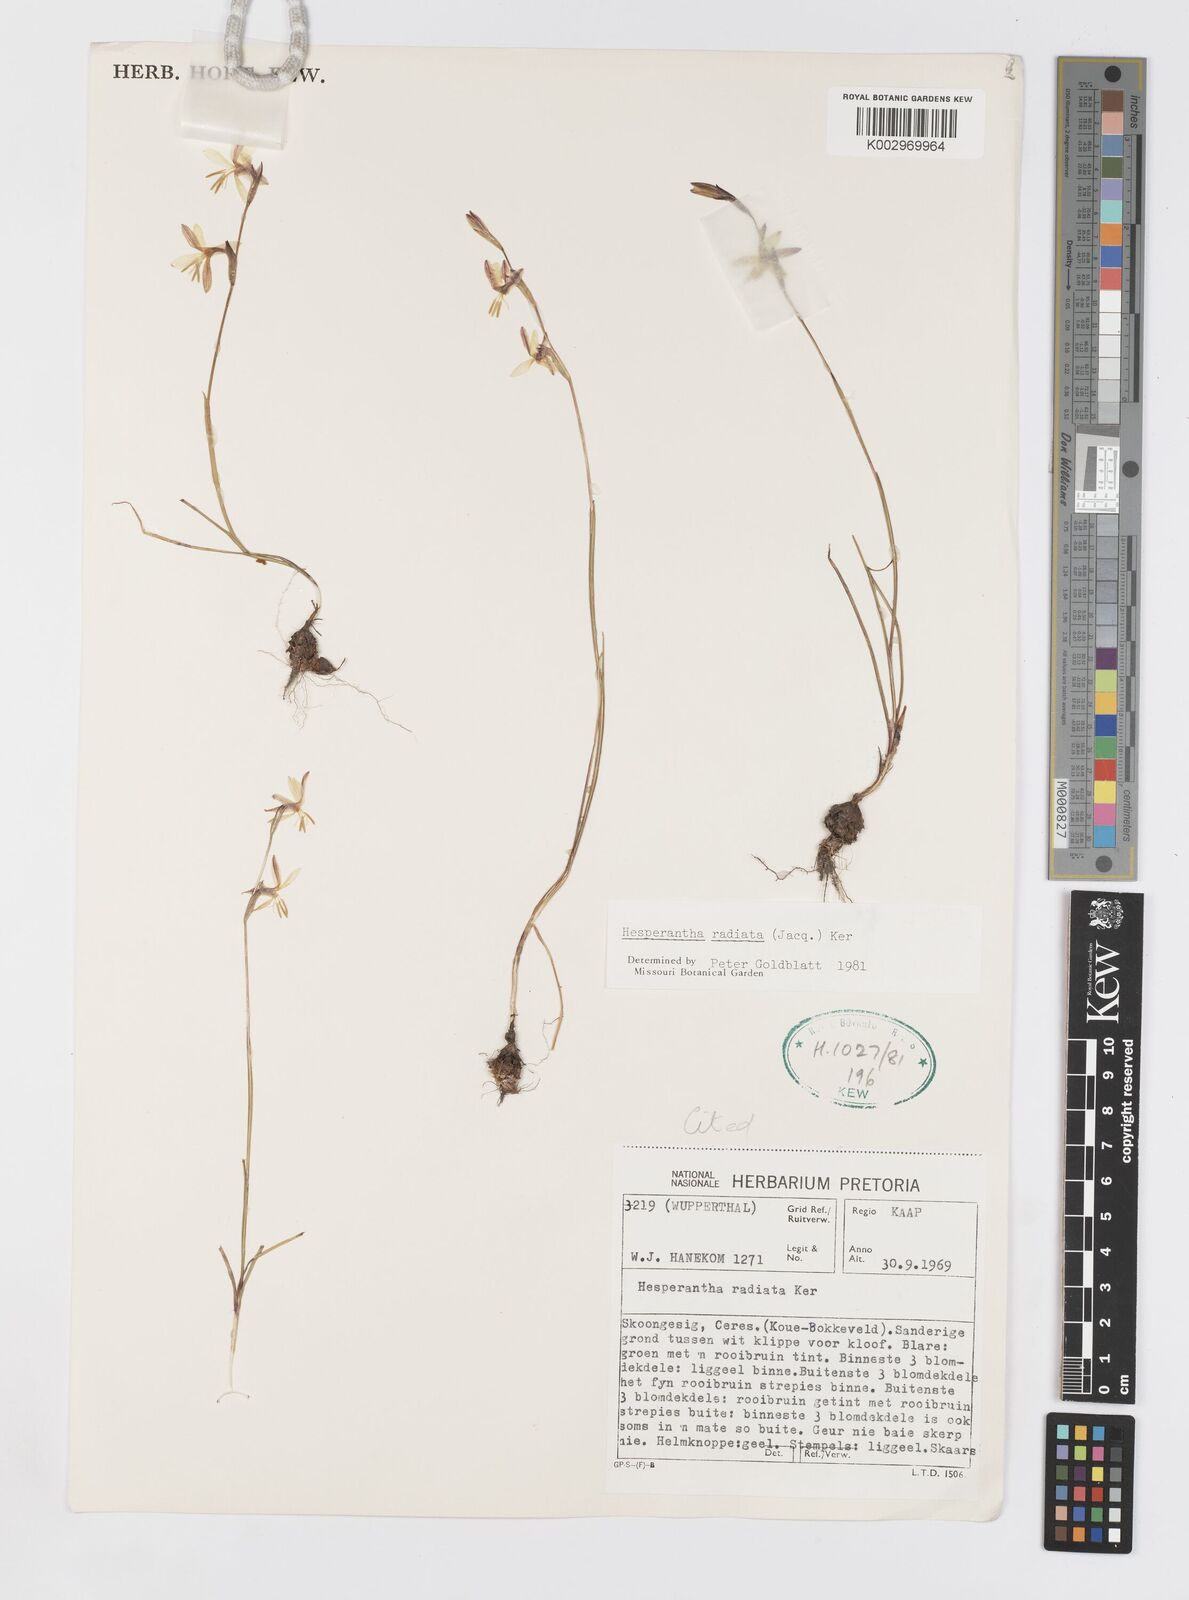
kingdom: Plantae
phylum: Tracheophyta
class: Liliopsida
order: Asparagales
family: Iridaceae
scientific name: Iridaceae
